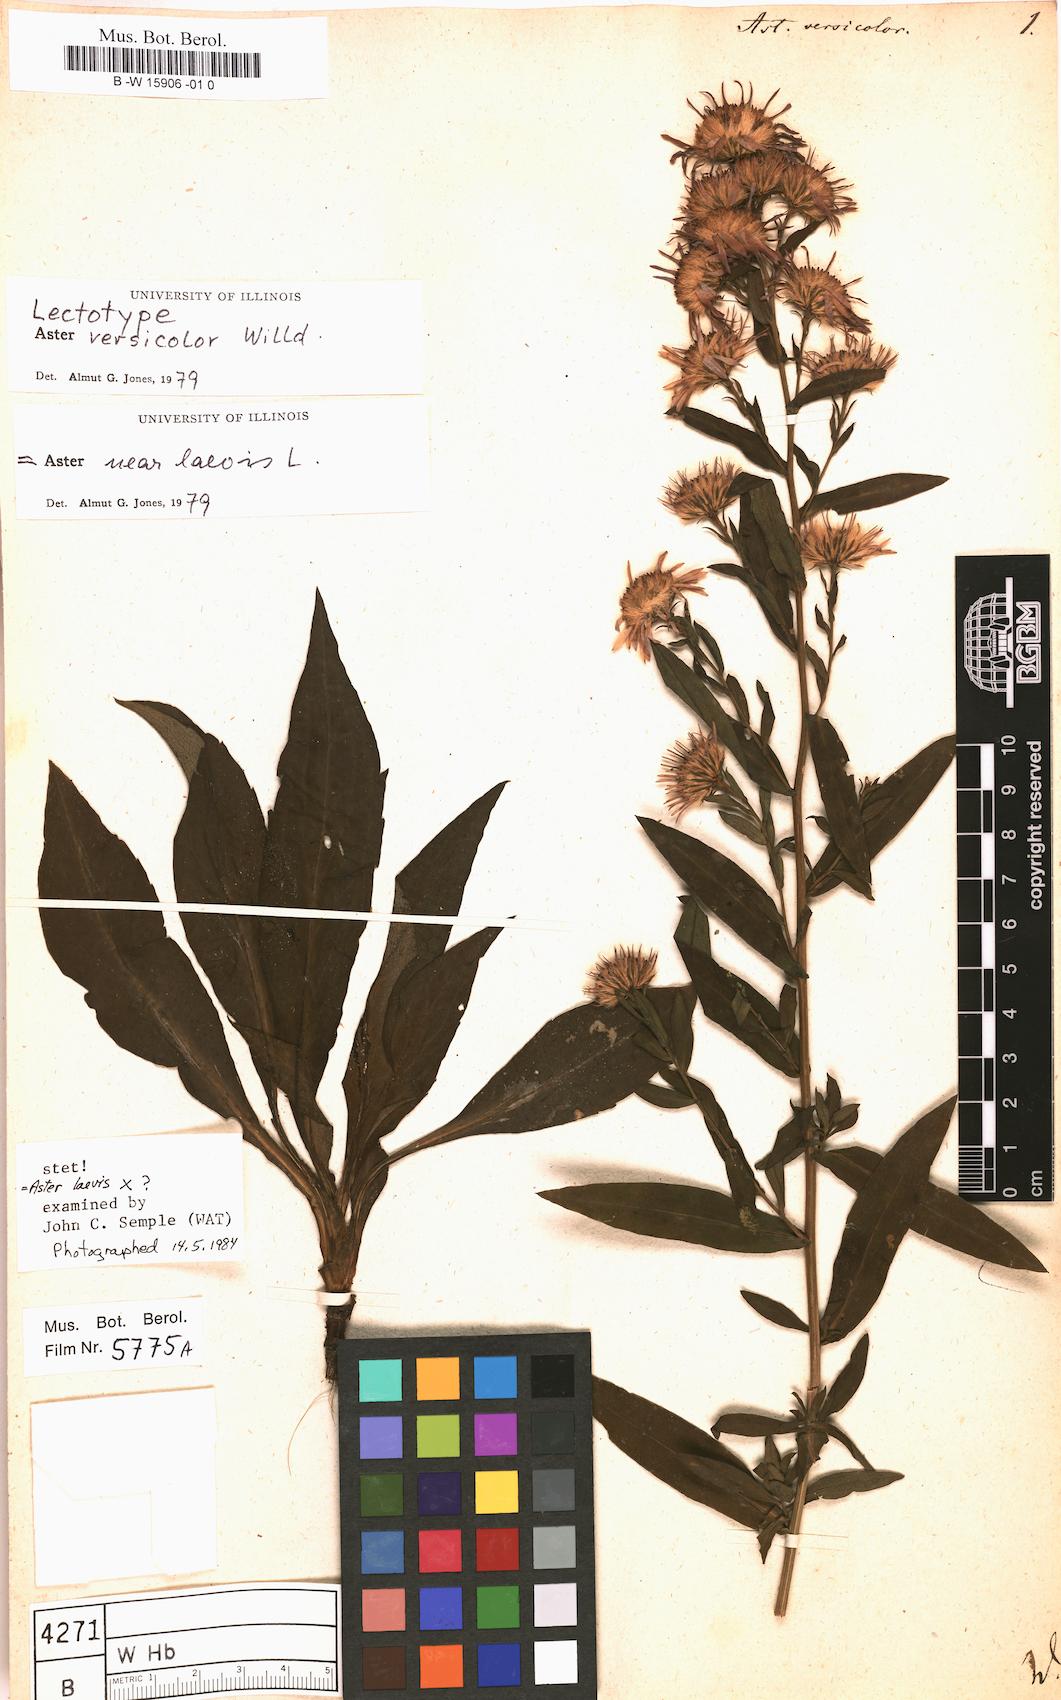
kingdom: Plantae
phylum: Tracheophyta
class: Magnoliopsida
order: Asterales
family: Asteraceae
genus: Aster
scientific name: Aster versicolor
